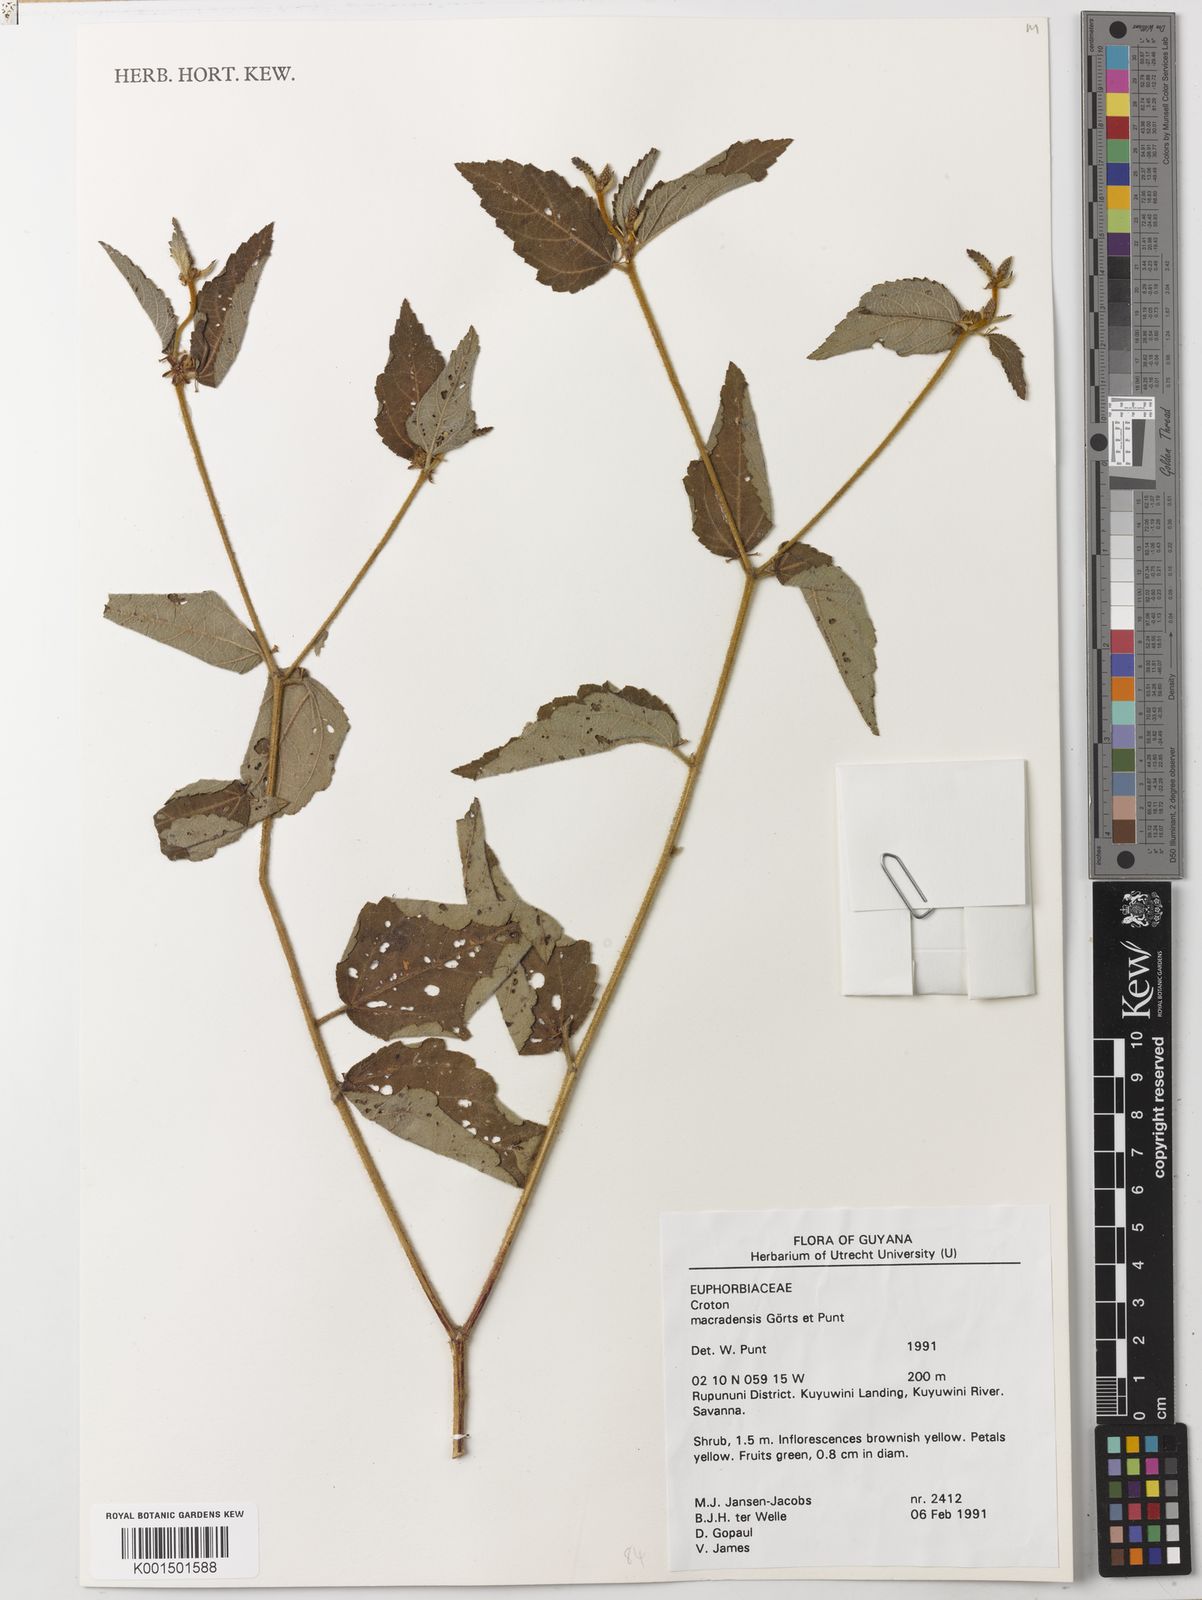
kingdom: Plantae
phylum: Tracheophyta
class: Magnoliopsida
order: Malpighiales
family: Euphorbiaceae
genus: Croton
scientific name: Croton sipaliwinensis
